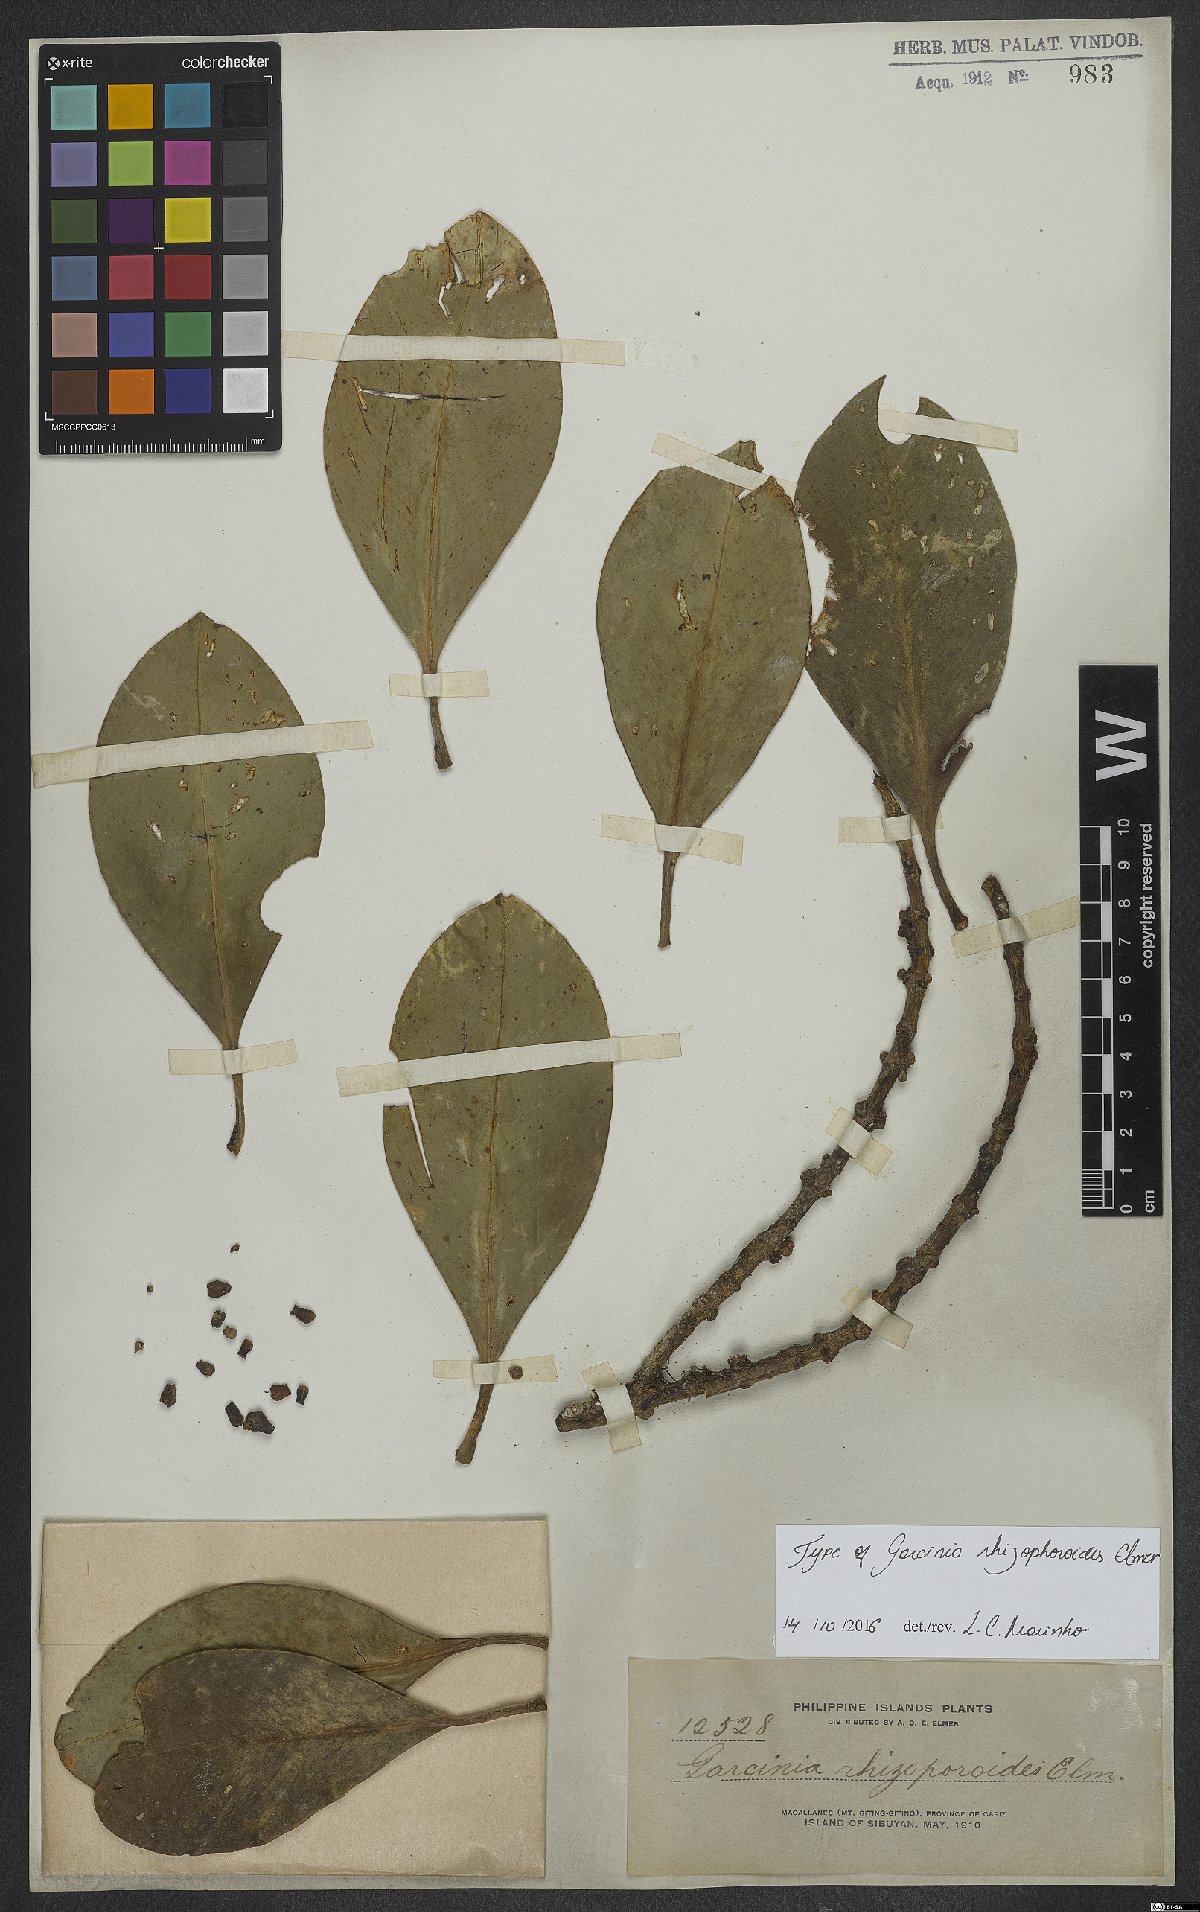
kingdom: Plantae
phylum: Tracheophyta
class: Magnoliopsida
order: Malpighiales
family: Clusiaceae
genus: Garcinia
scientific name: Garcinia rhizophoroides
